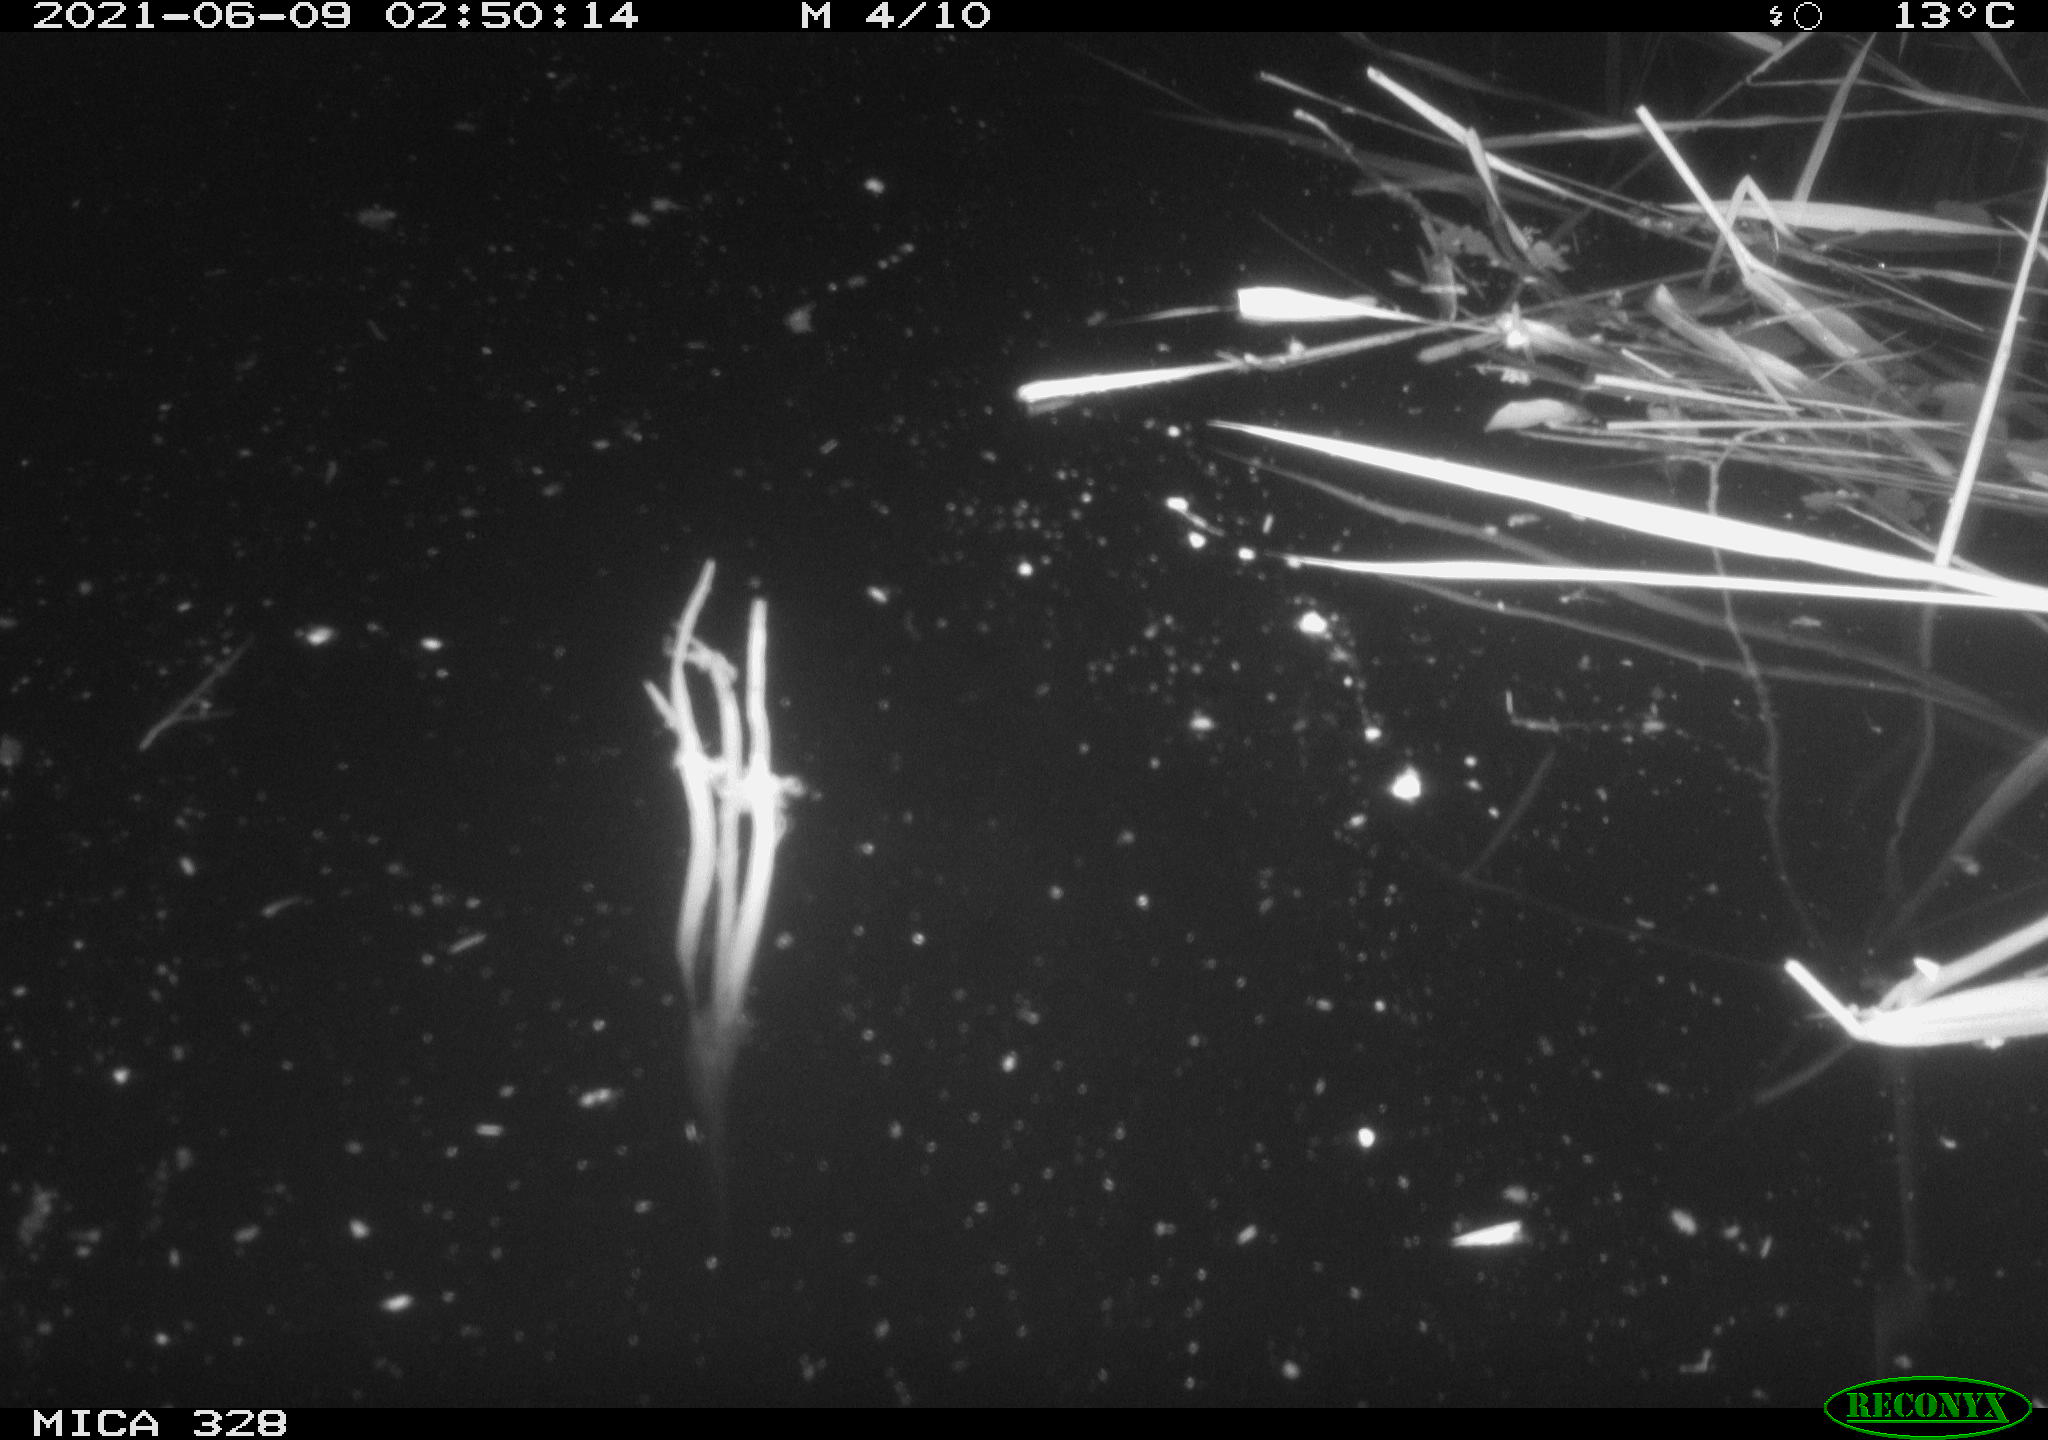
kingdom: Animalia
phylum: Chordata
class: Mammalia
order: Rodentia
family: Cricetidae
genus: Ondatra
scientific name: Ondatra zibethicus
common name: Muskrat
